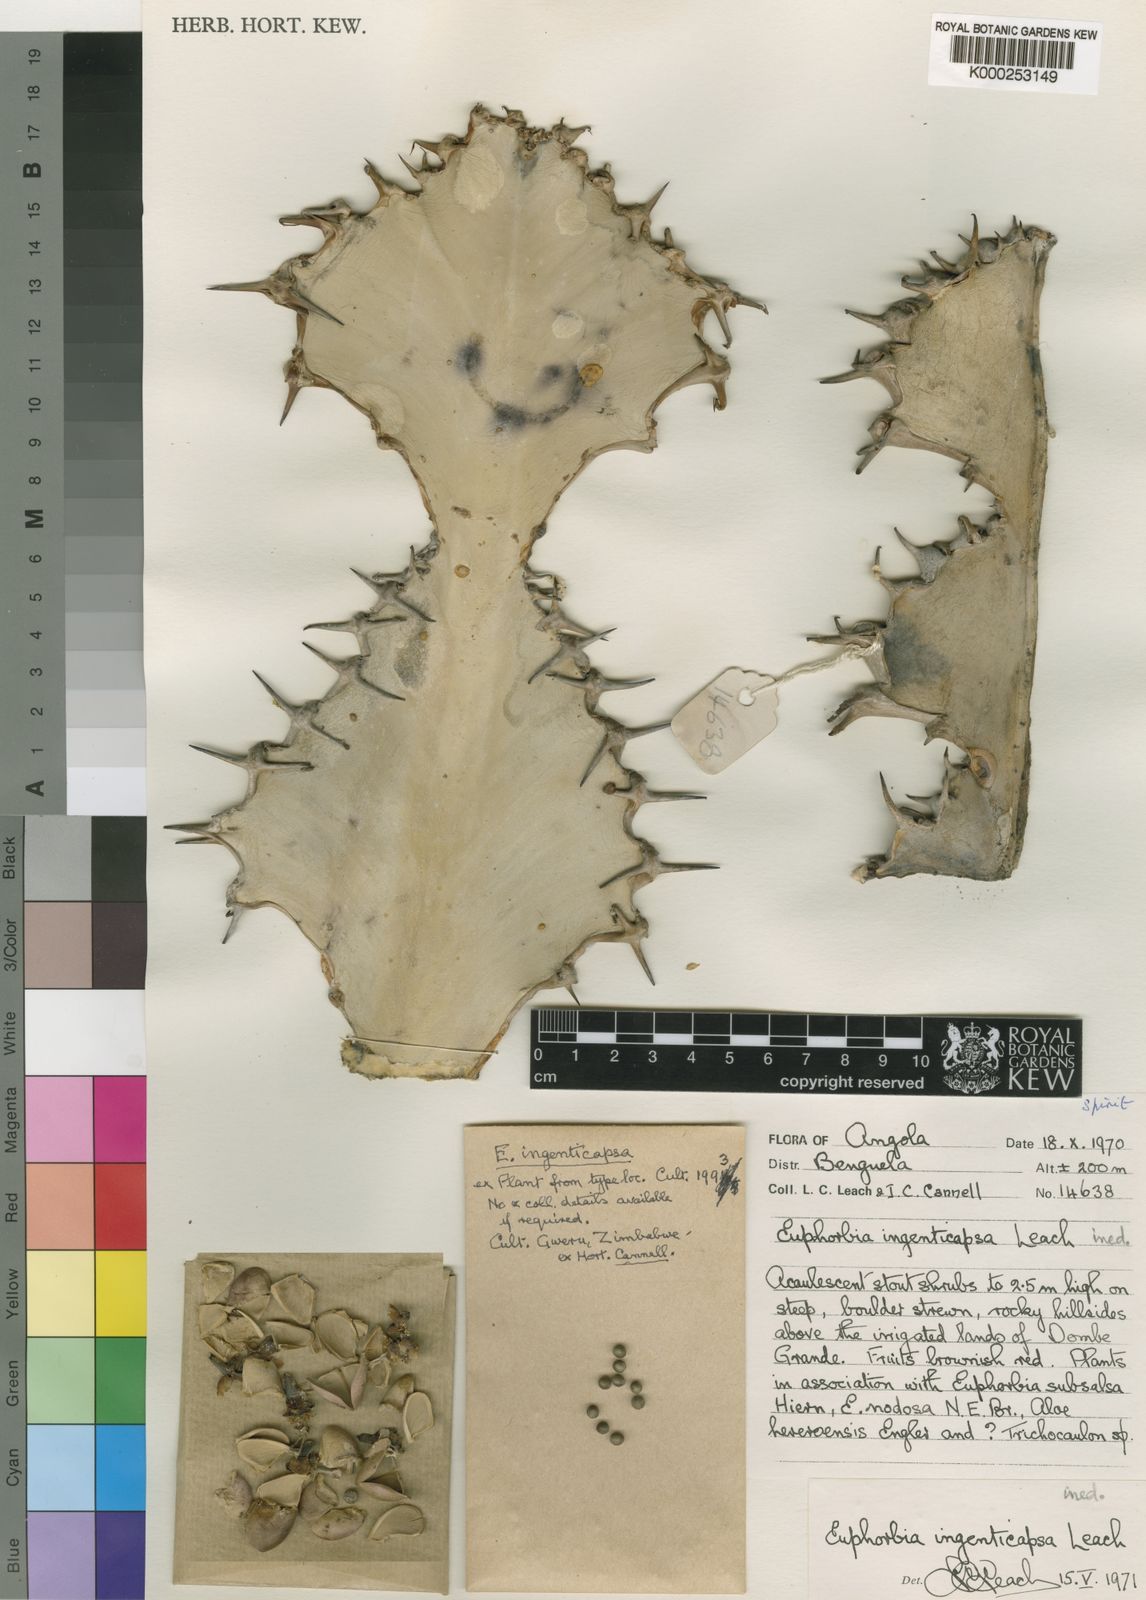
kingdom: Plantae
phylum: Tracheophyta
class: Magnoliopsida
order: Malpighiales
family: Euphorbiaceae
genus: Euphorbia
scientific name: Euphorbia ingenticapsa
